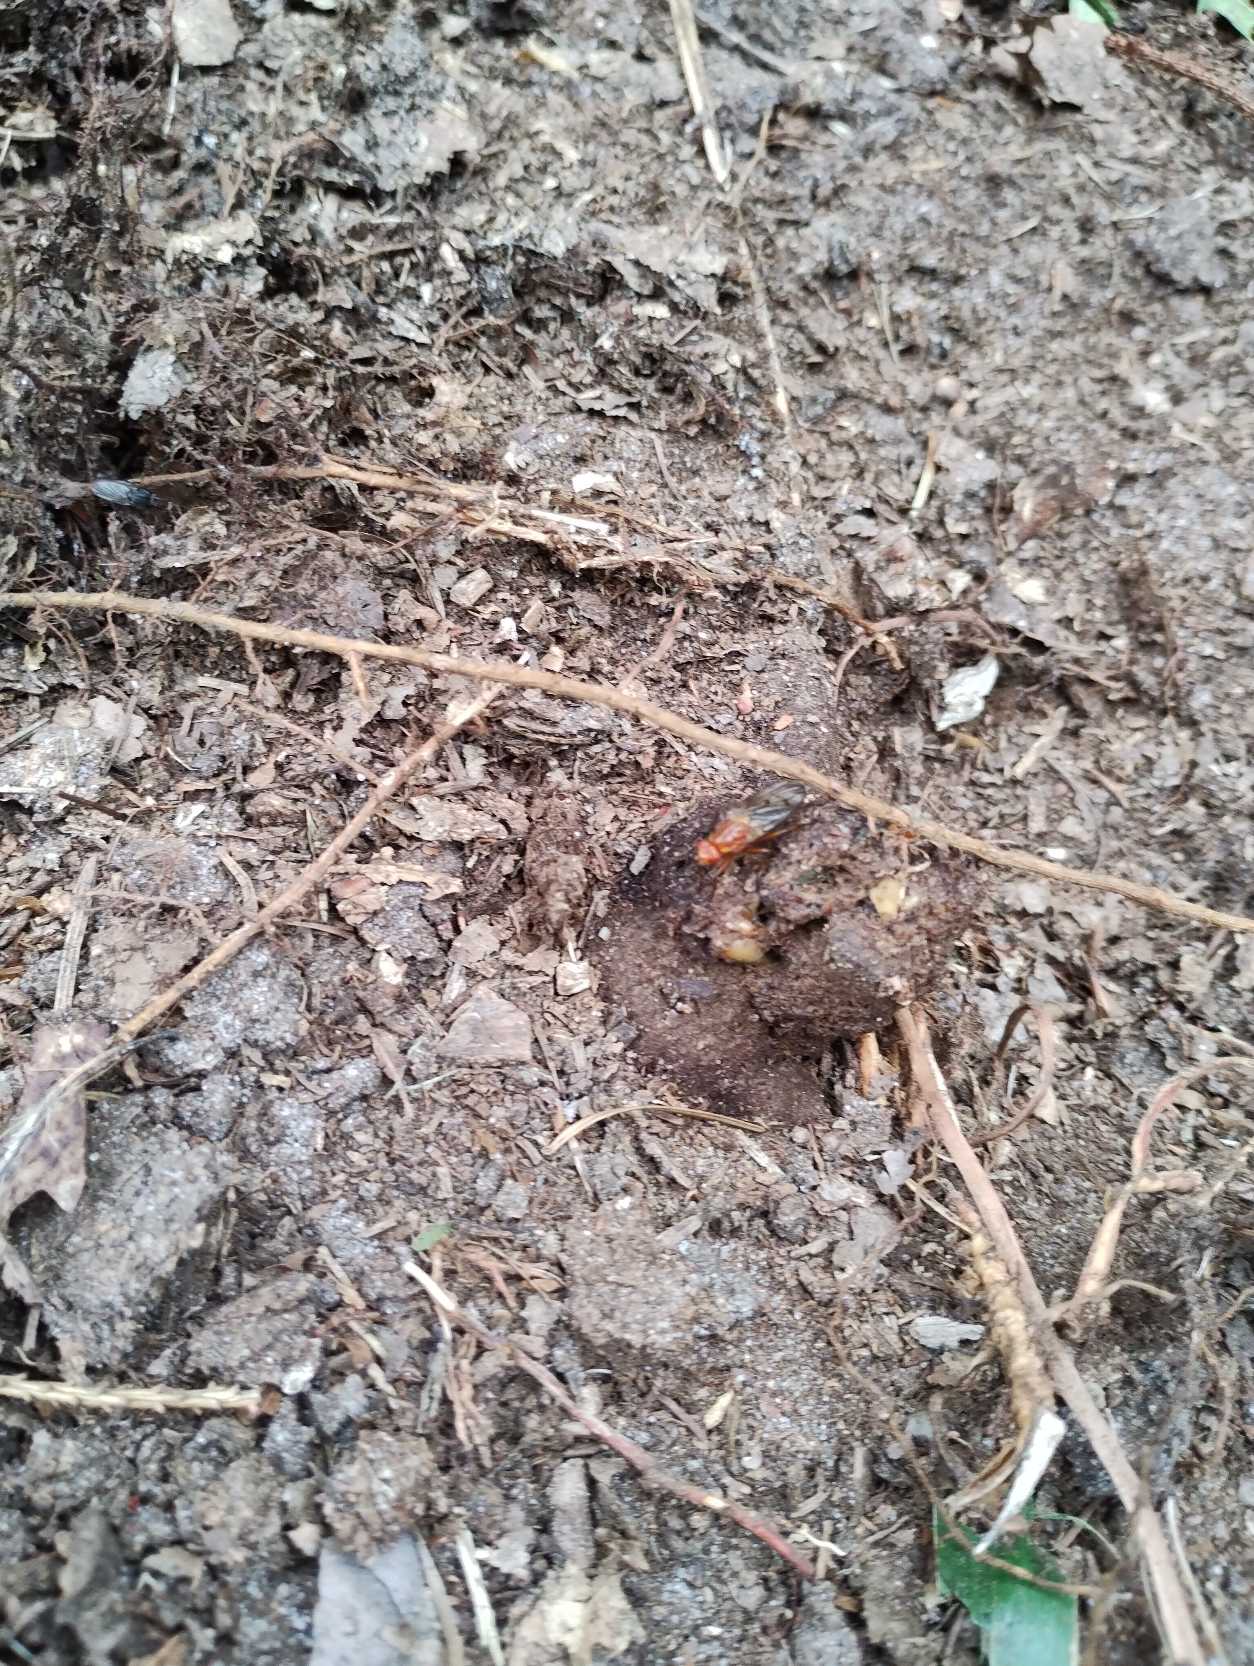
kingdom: Animalia
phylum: Arthropoda
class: Insecta
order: Diptera
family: Dryomyzidae
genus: Dryomyza
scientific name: Dryomyza anilis
